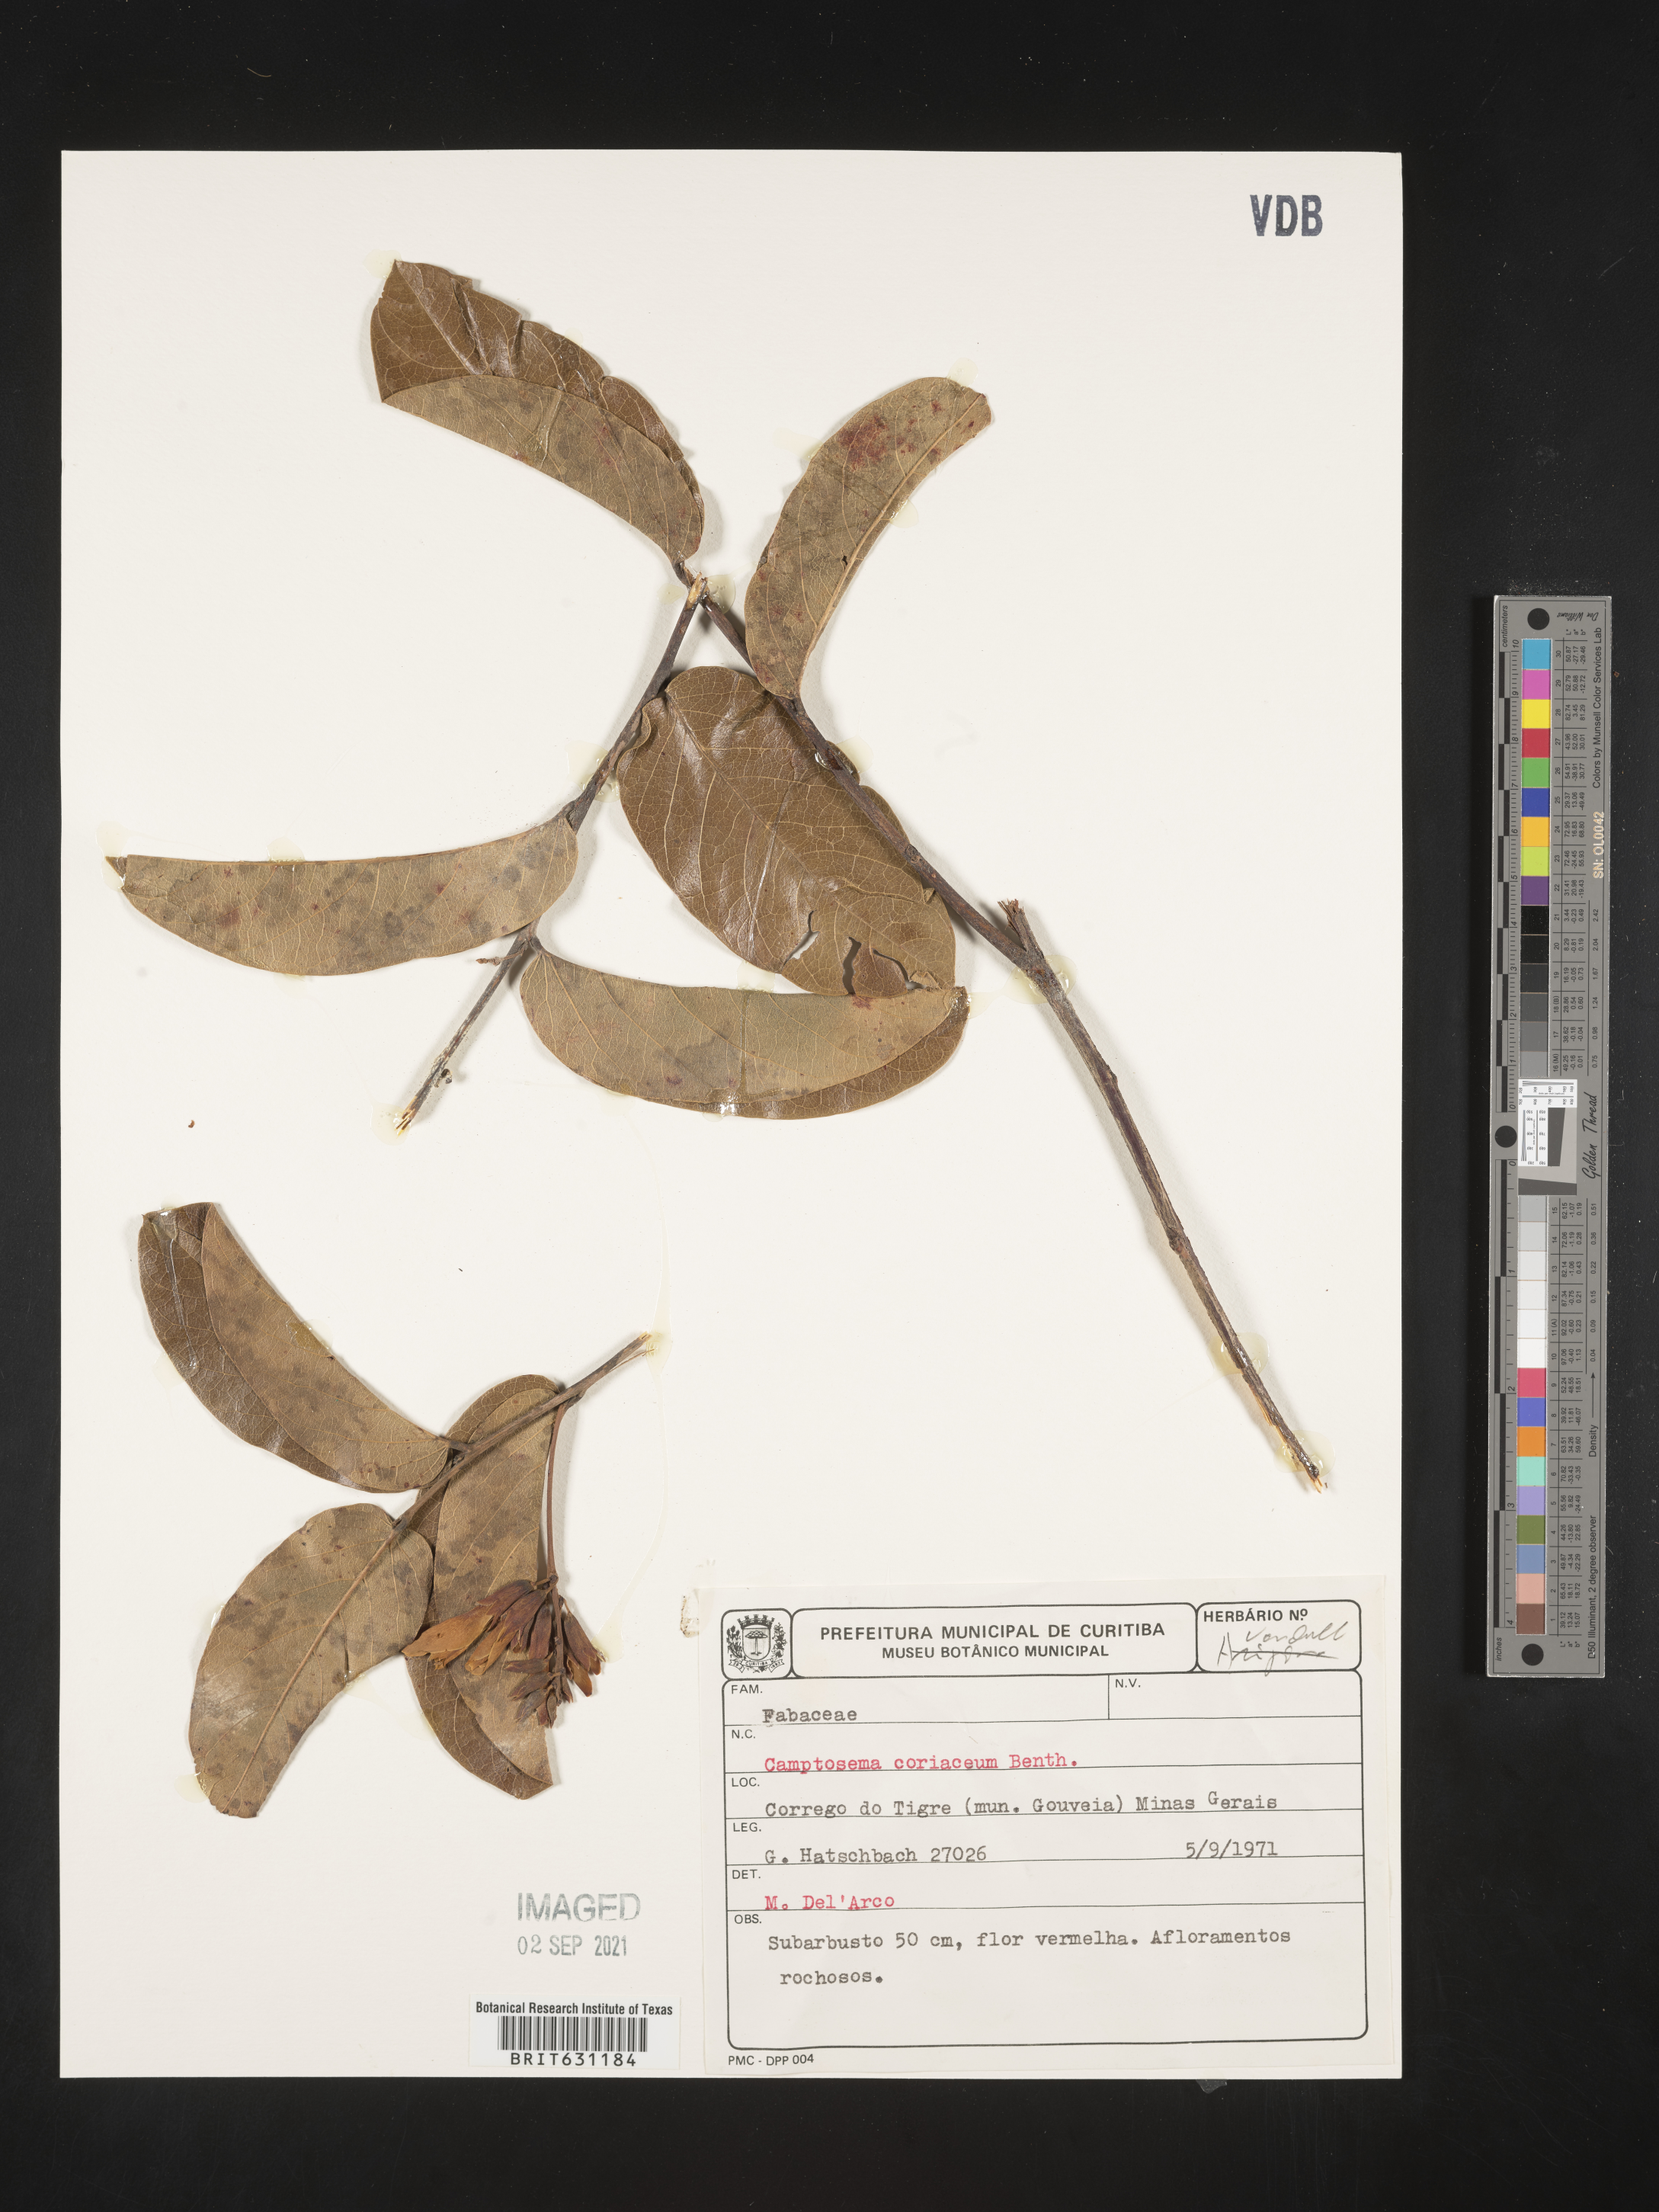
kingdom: Plantae
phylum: Tracheophyta
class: Magnoliopsida
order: Fabales
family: Fabaceae
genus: Camptosema
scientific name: Camptosema coriaceum
